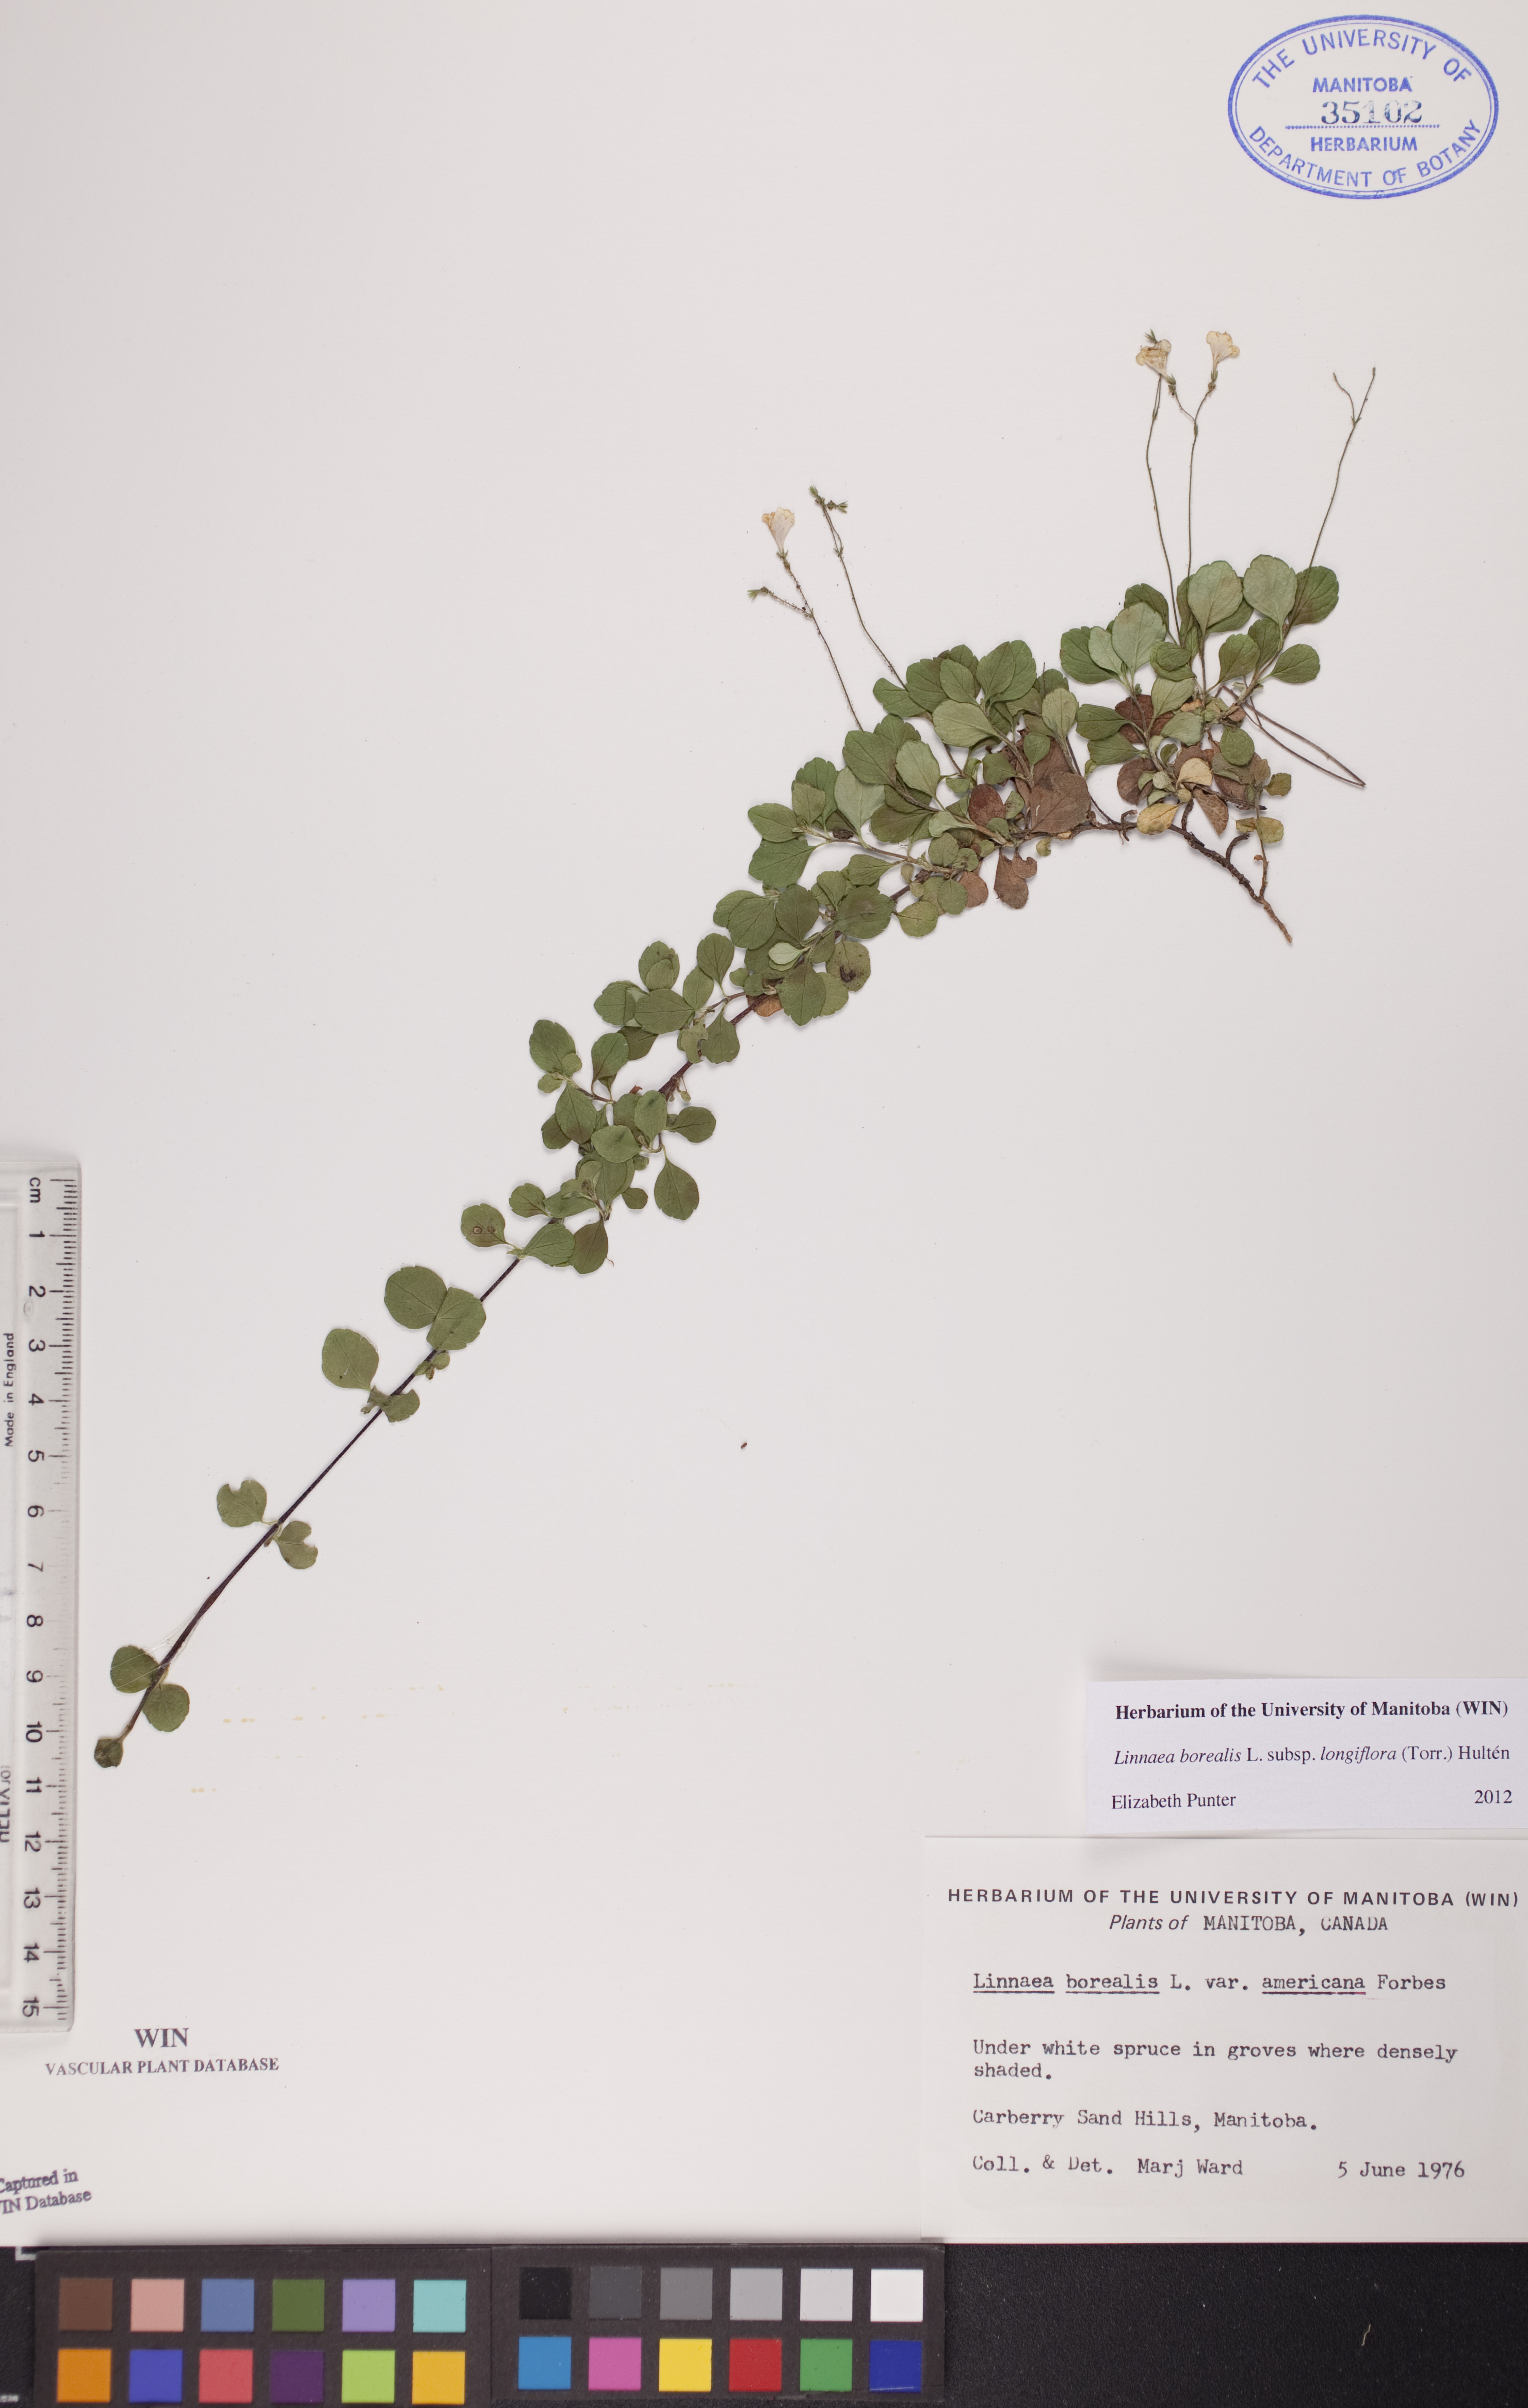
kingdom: Plantae
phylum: Tracheophyta
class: Magnoliopsida
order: Dipsacales
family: Caprifoliaceae
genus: Linnaea
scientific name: Linnaea borealis
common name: Twinflower
